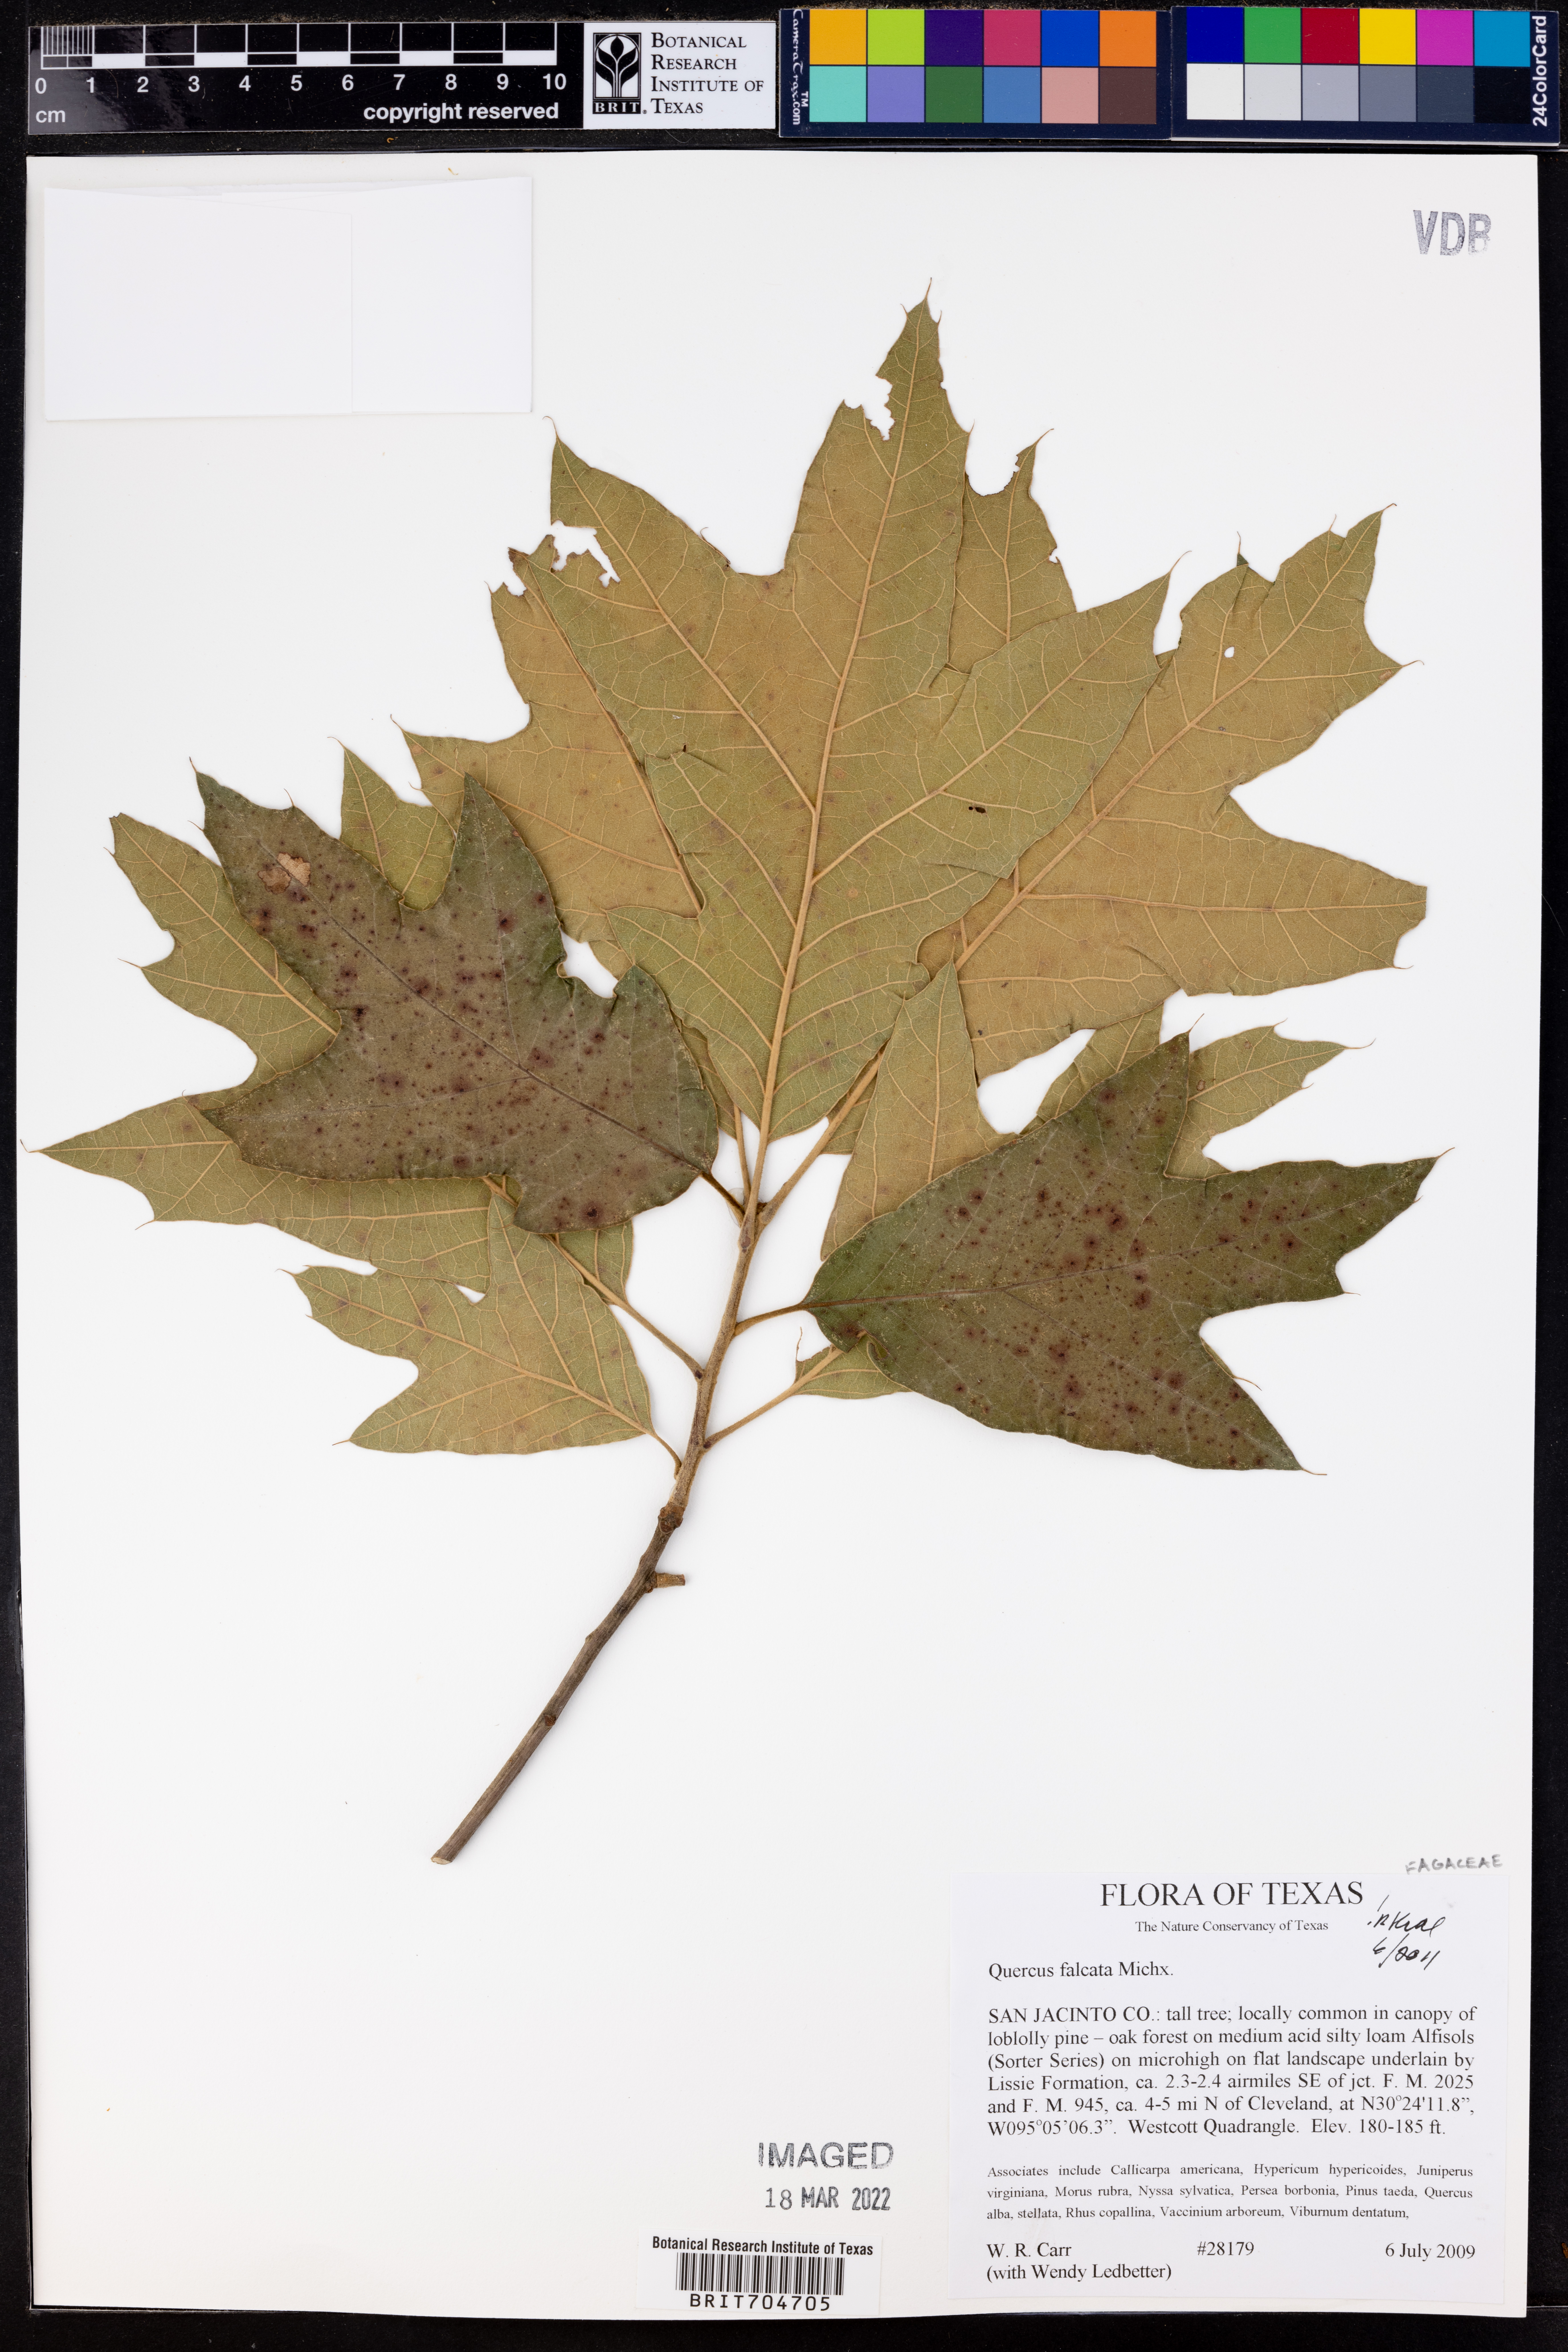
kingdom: Plantae
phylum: Tracheophyta
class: Magnoliopsida
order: Fagales
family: Fagaceae
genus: Quercus
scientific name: Quercus falcata
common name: Southern red oak
